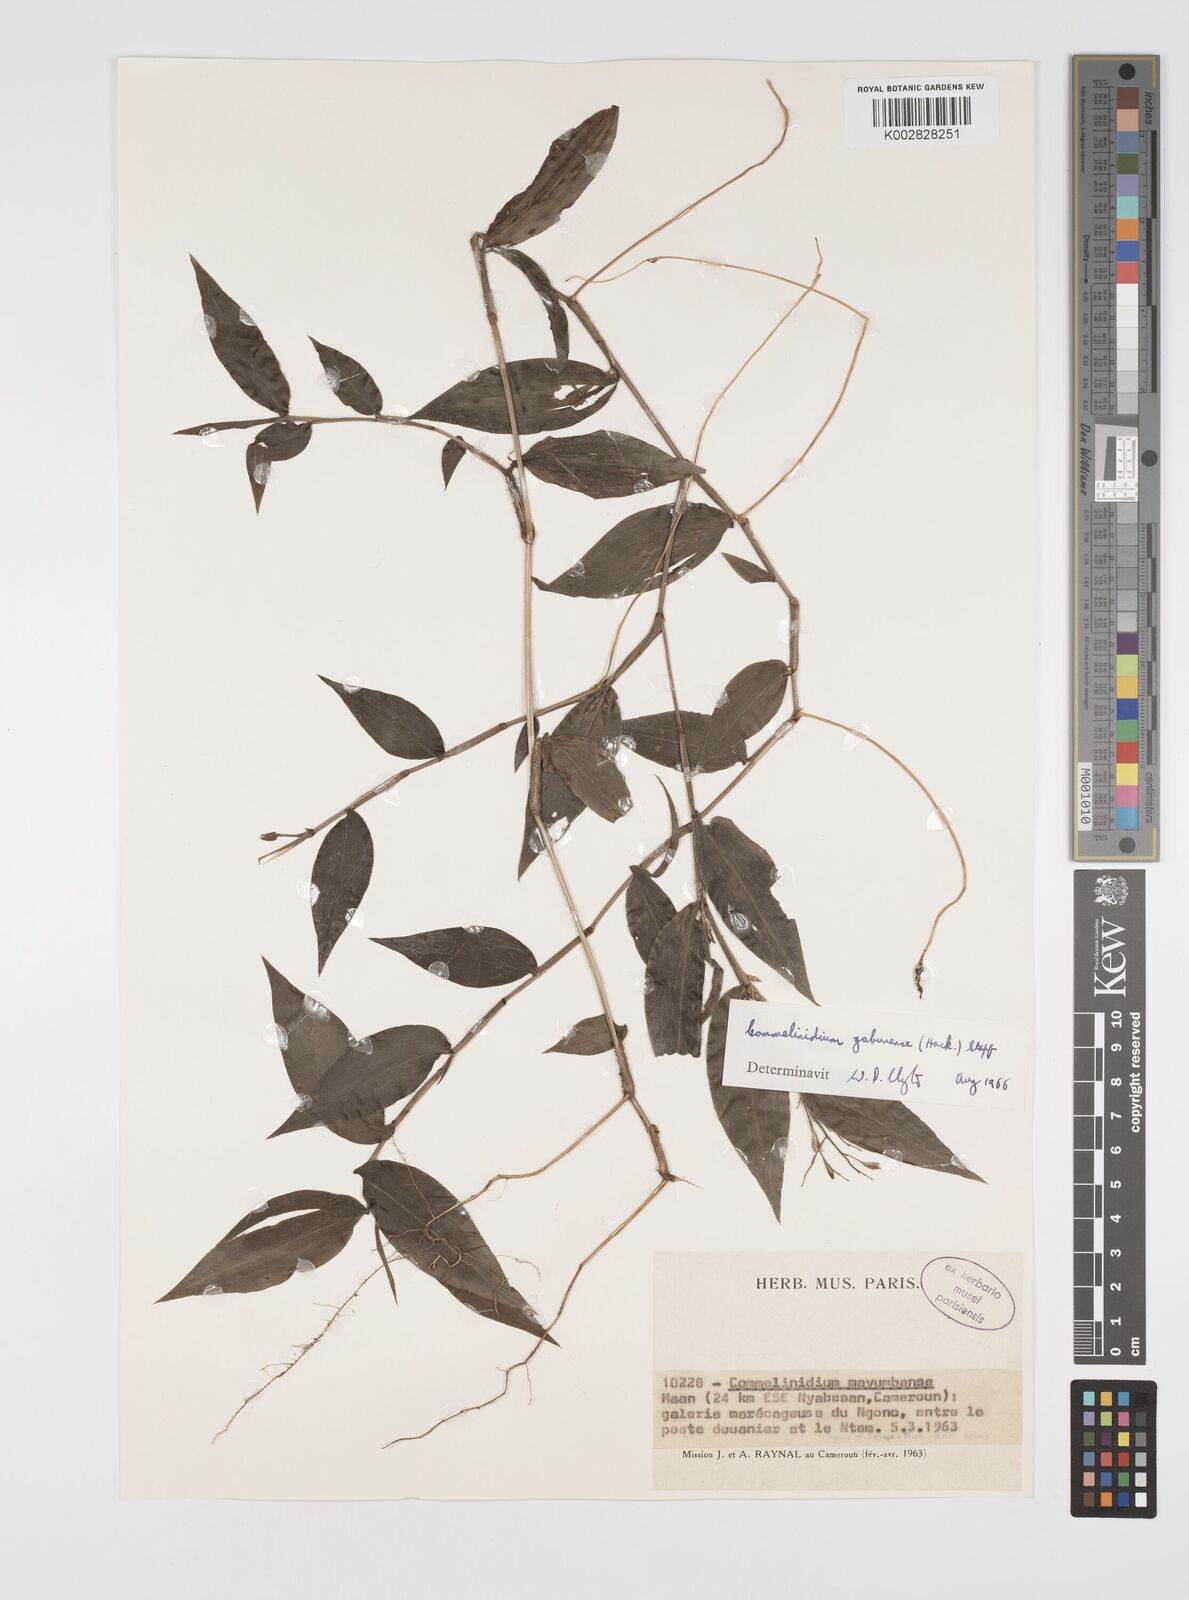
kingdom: Plantae
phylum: Tracheophyta
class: Liliopsida
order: Poales
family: Poaceae
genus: Acroceras
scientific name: Acroceras gabunense
